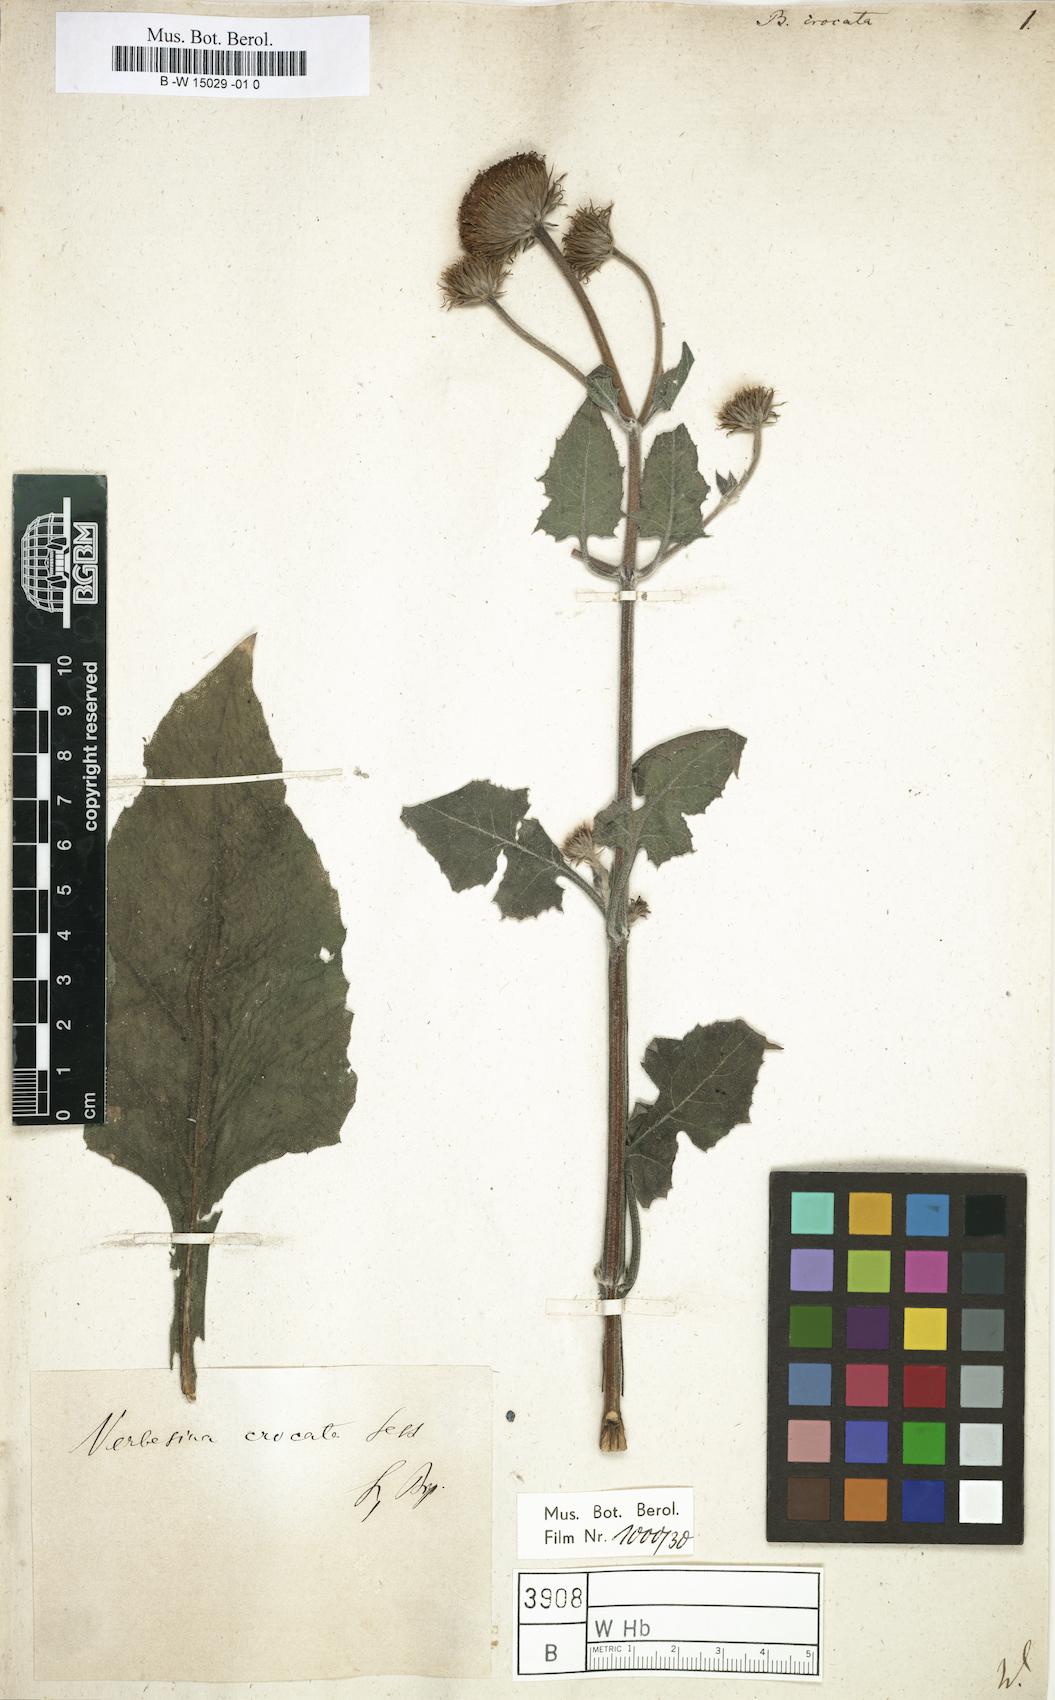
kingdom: Plantae
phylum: Tracheophyta
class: Magnoliopsida
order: Asterales
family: Asteraceae
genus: Verbesina
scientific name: Verbesina crocata
